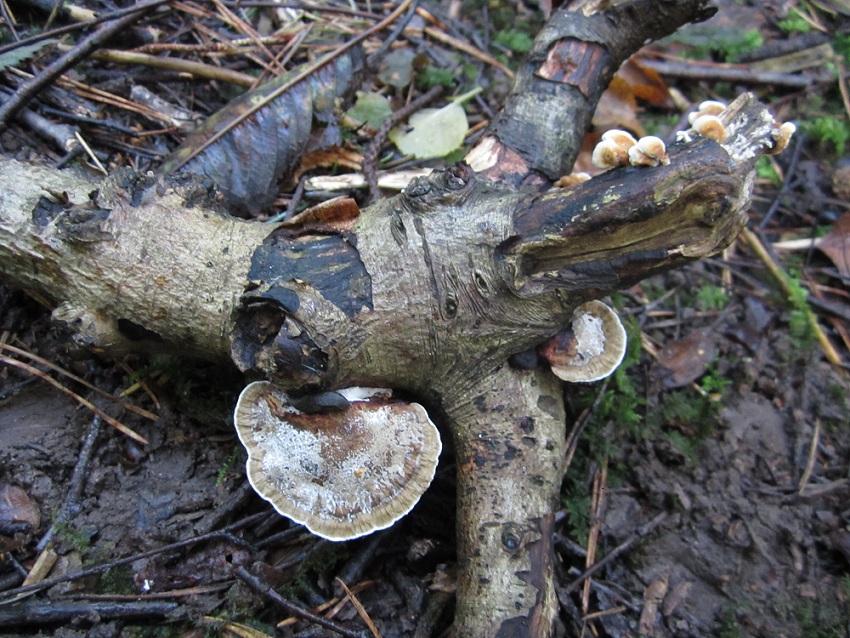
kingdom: Fungi
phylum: Basidiomycota
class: Agaricomycetes
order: Polyporales
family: Polyporaceae
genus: Daedaleopsis
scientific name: Daedaleopsis confragosa
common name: rødmende læderporesvamp
